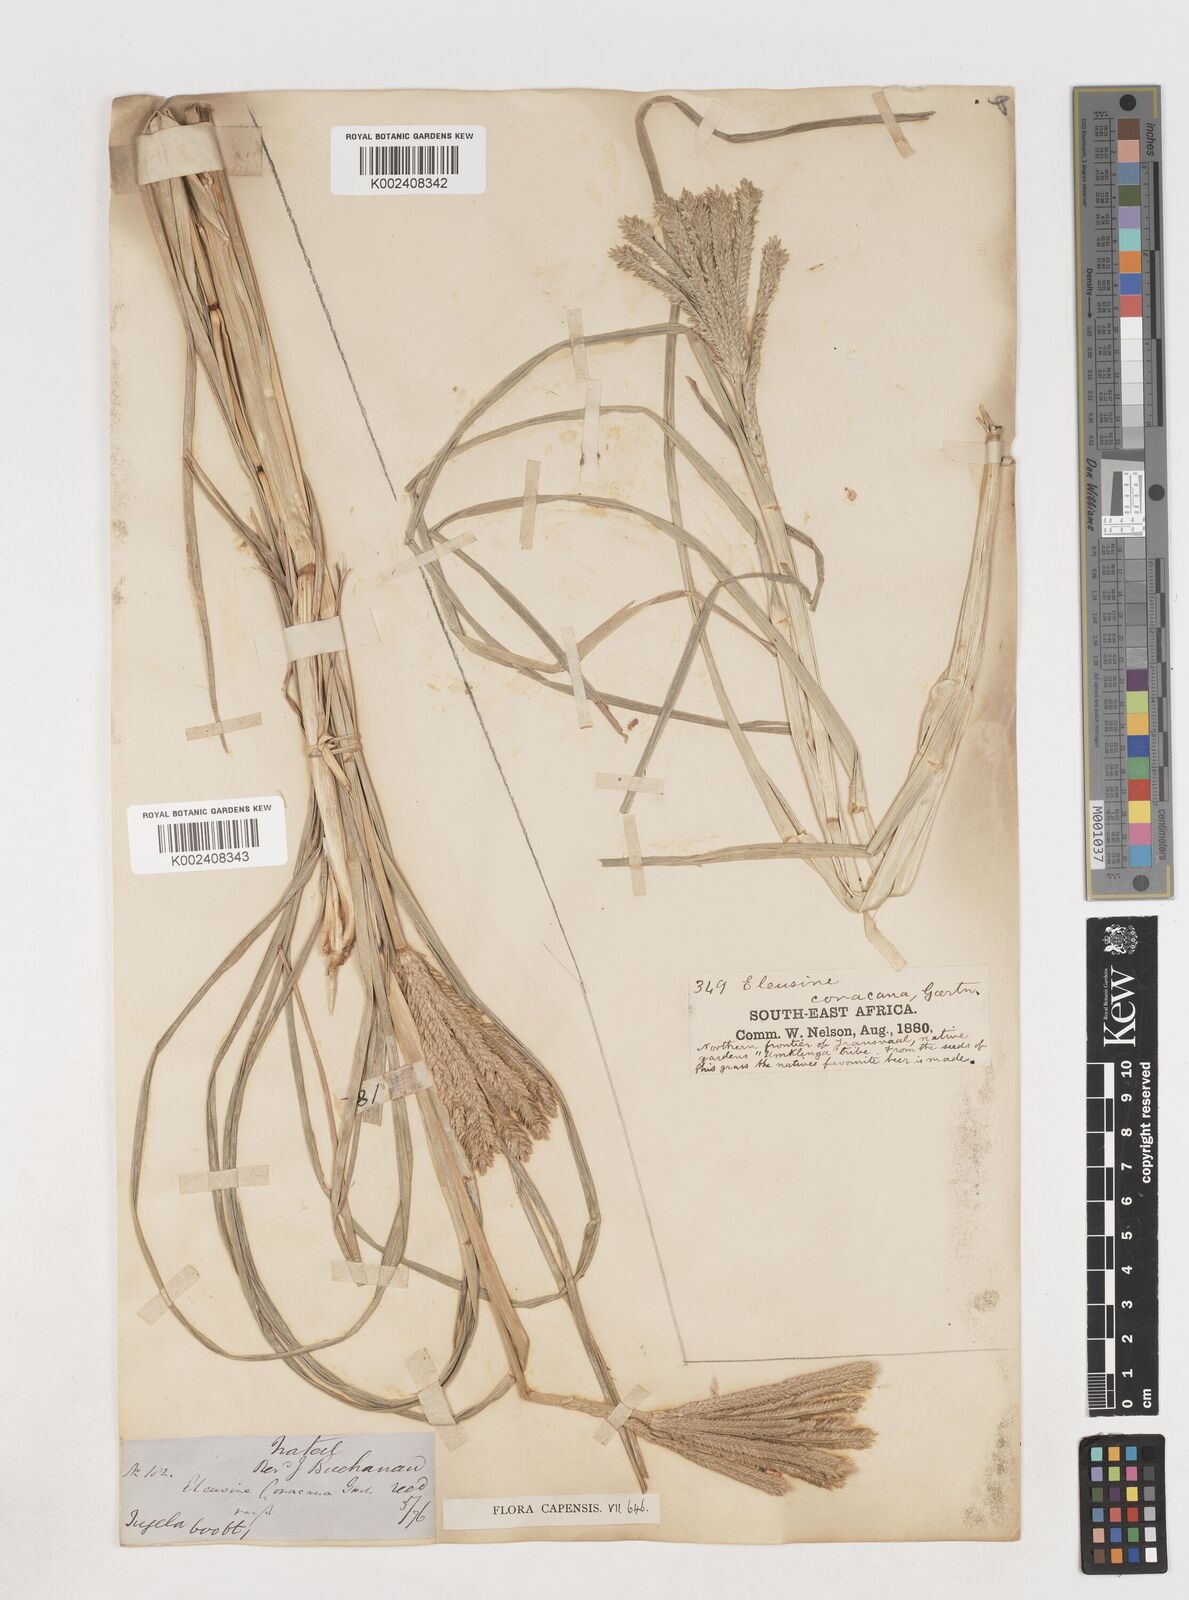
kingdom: Plantae
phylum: Tracheophyta
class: Liliopsida
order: Poales
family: Poaceae
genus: Eleusine
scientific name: Eleusine coracana
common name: Finger millet
